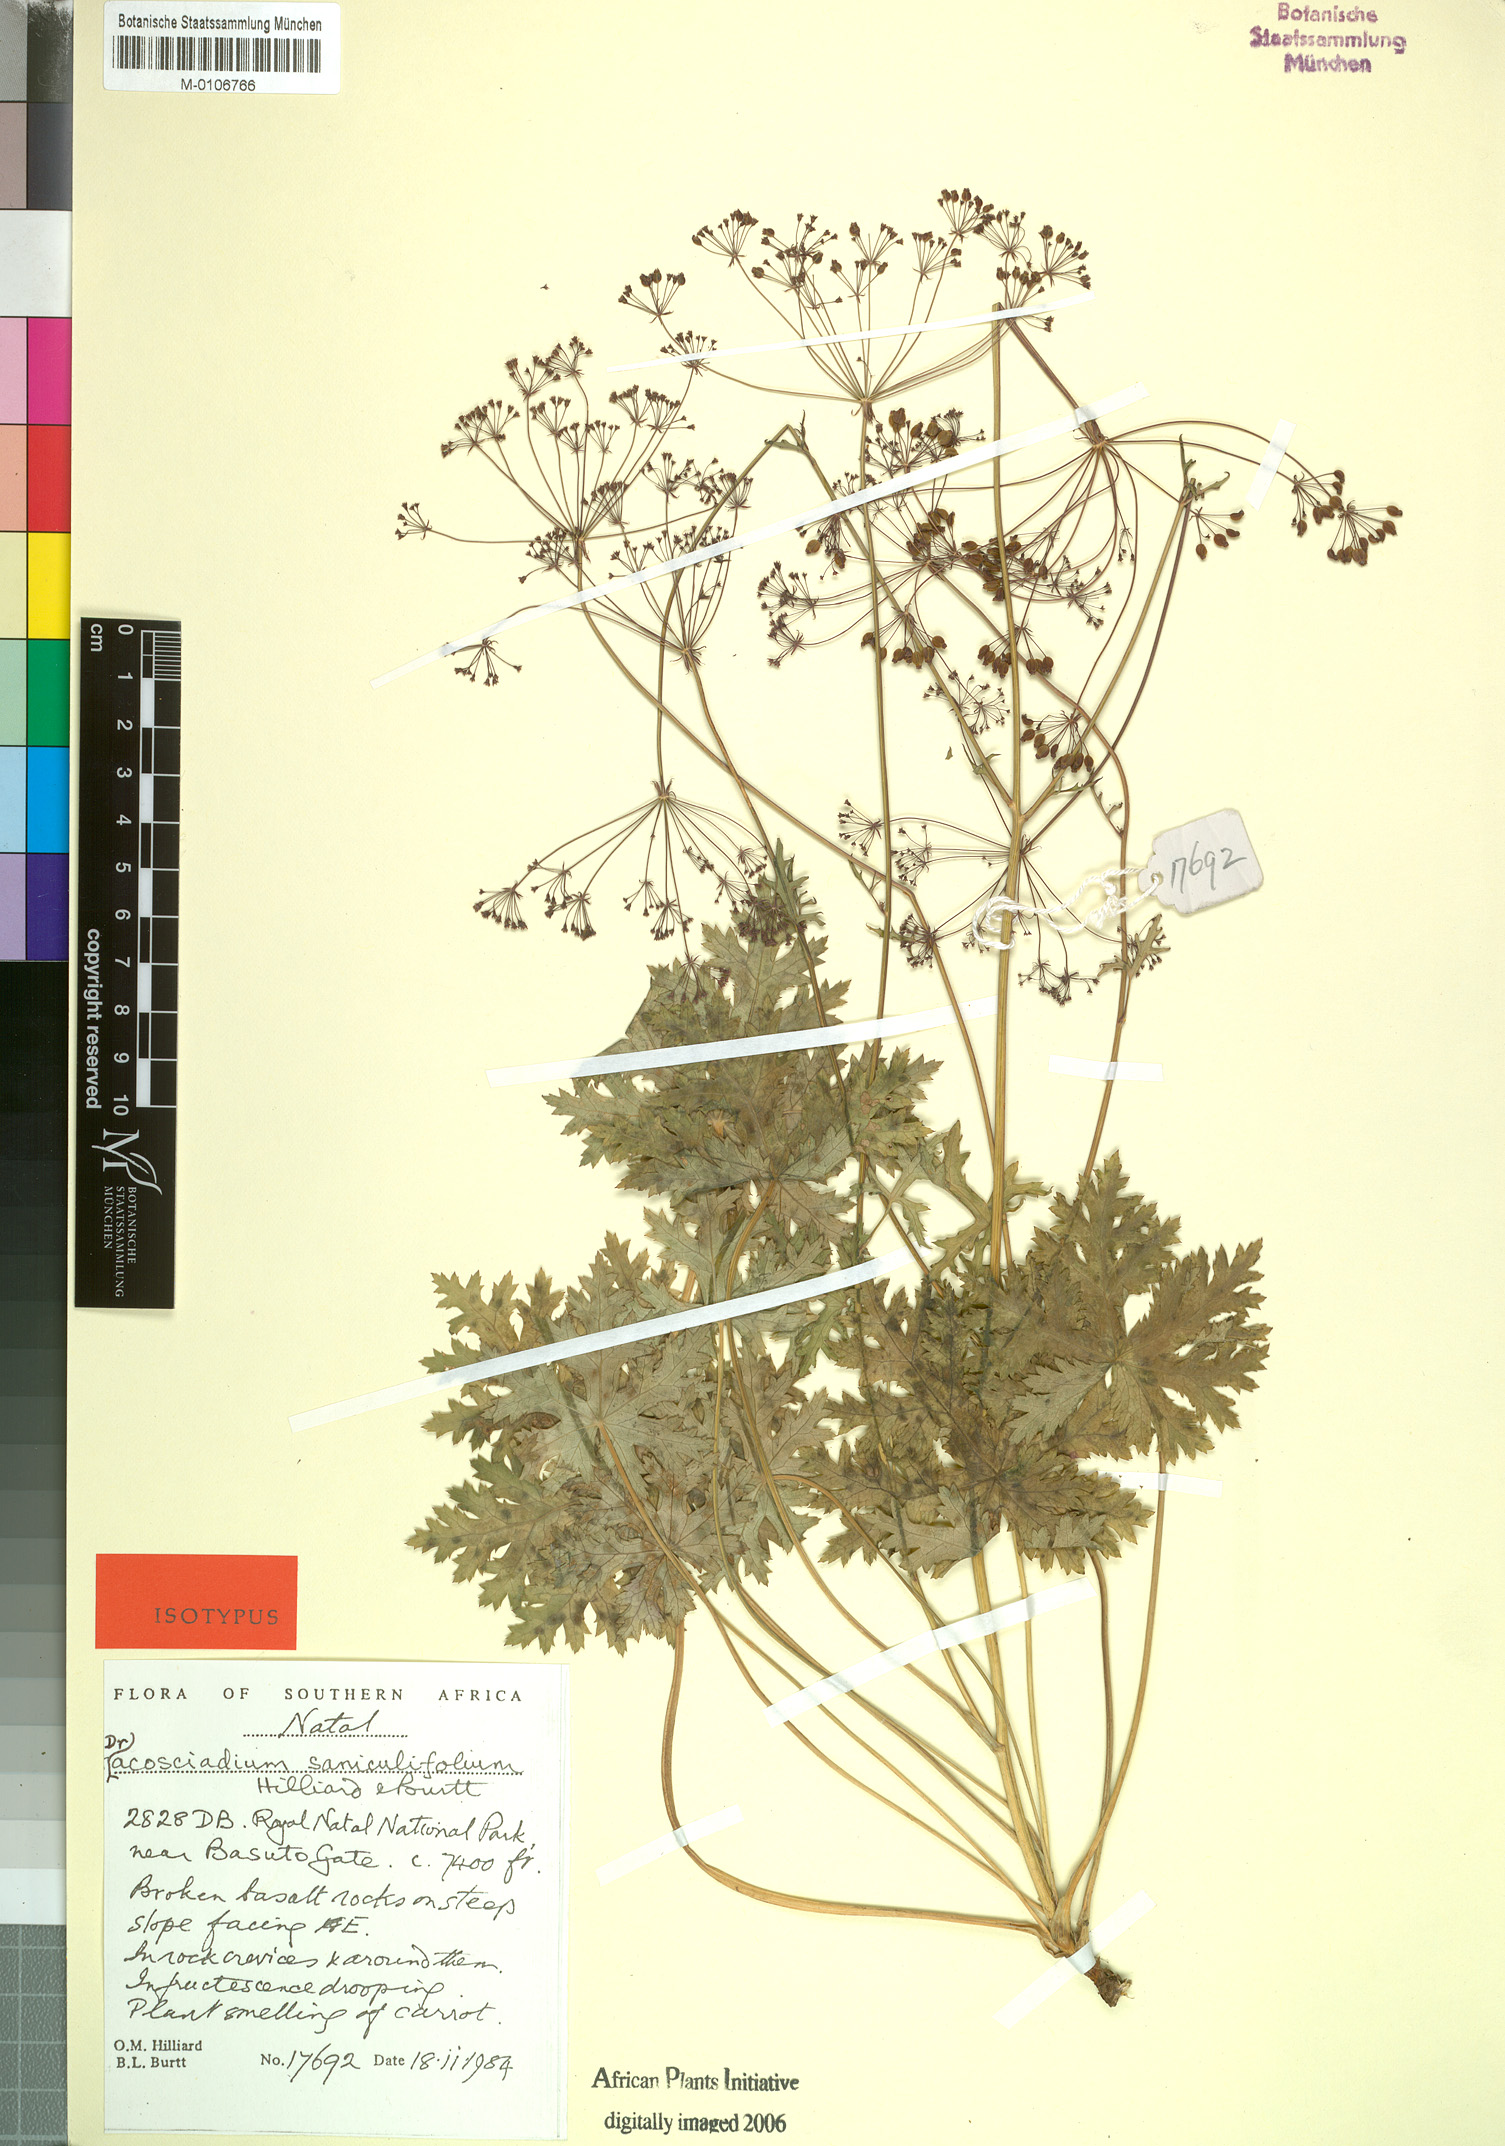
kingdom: Plantae
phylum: Tracheophyta
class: Magnoliopsida
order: Apiales
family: Apiaceae
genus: Dracosciadium
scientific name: Dracosciadium saniculifolium
